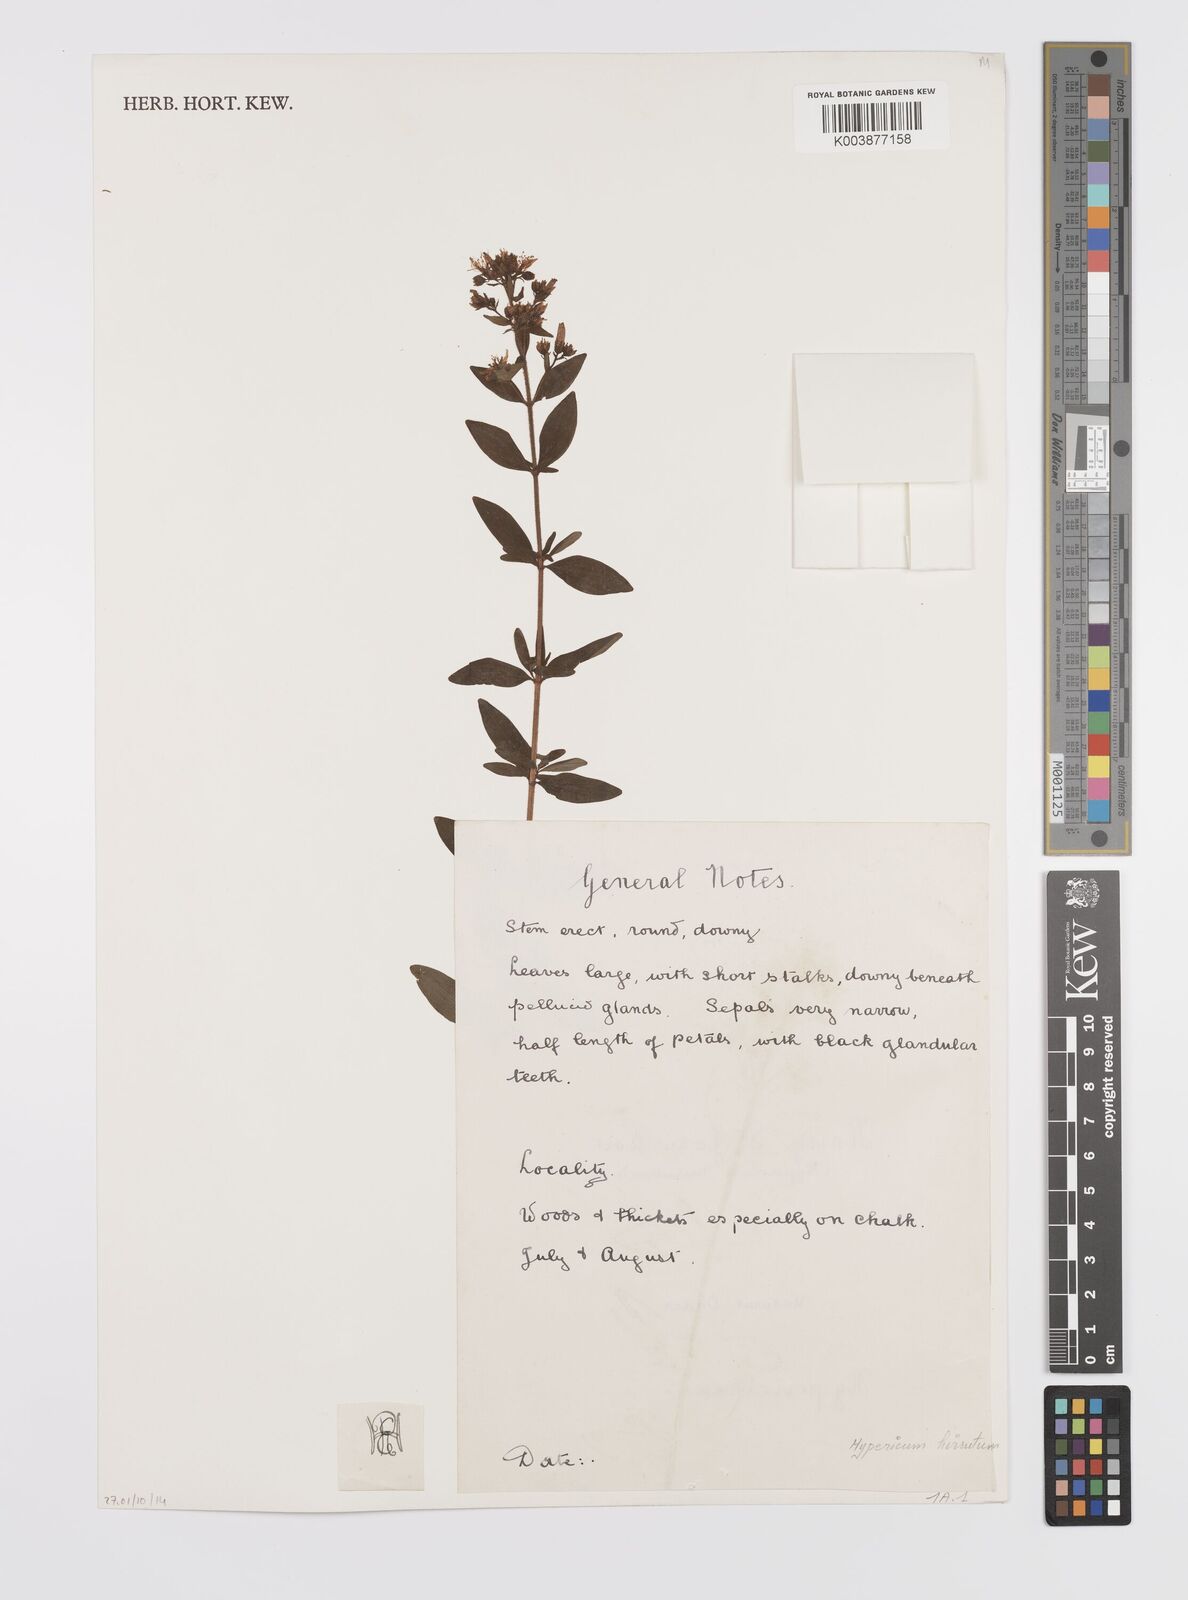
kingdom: Plantae
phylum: Tracheophyta
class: Magnoliopsida
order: Malpighiales
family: Hypericaceae
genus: Hypericum
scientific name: Hypericum hirsutum
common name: Hairy st. john's-wort
